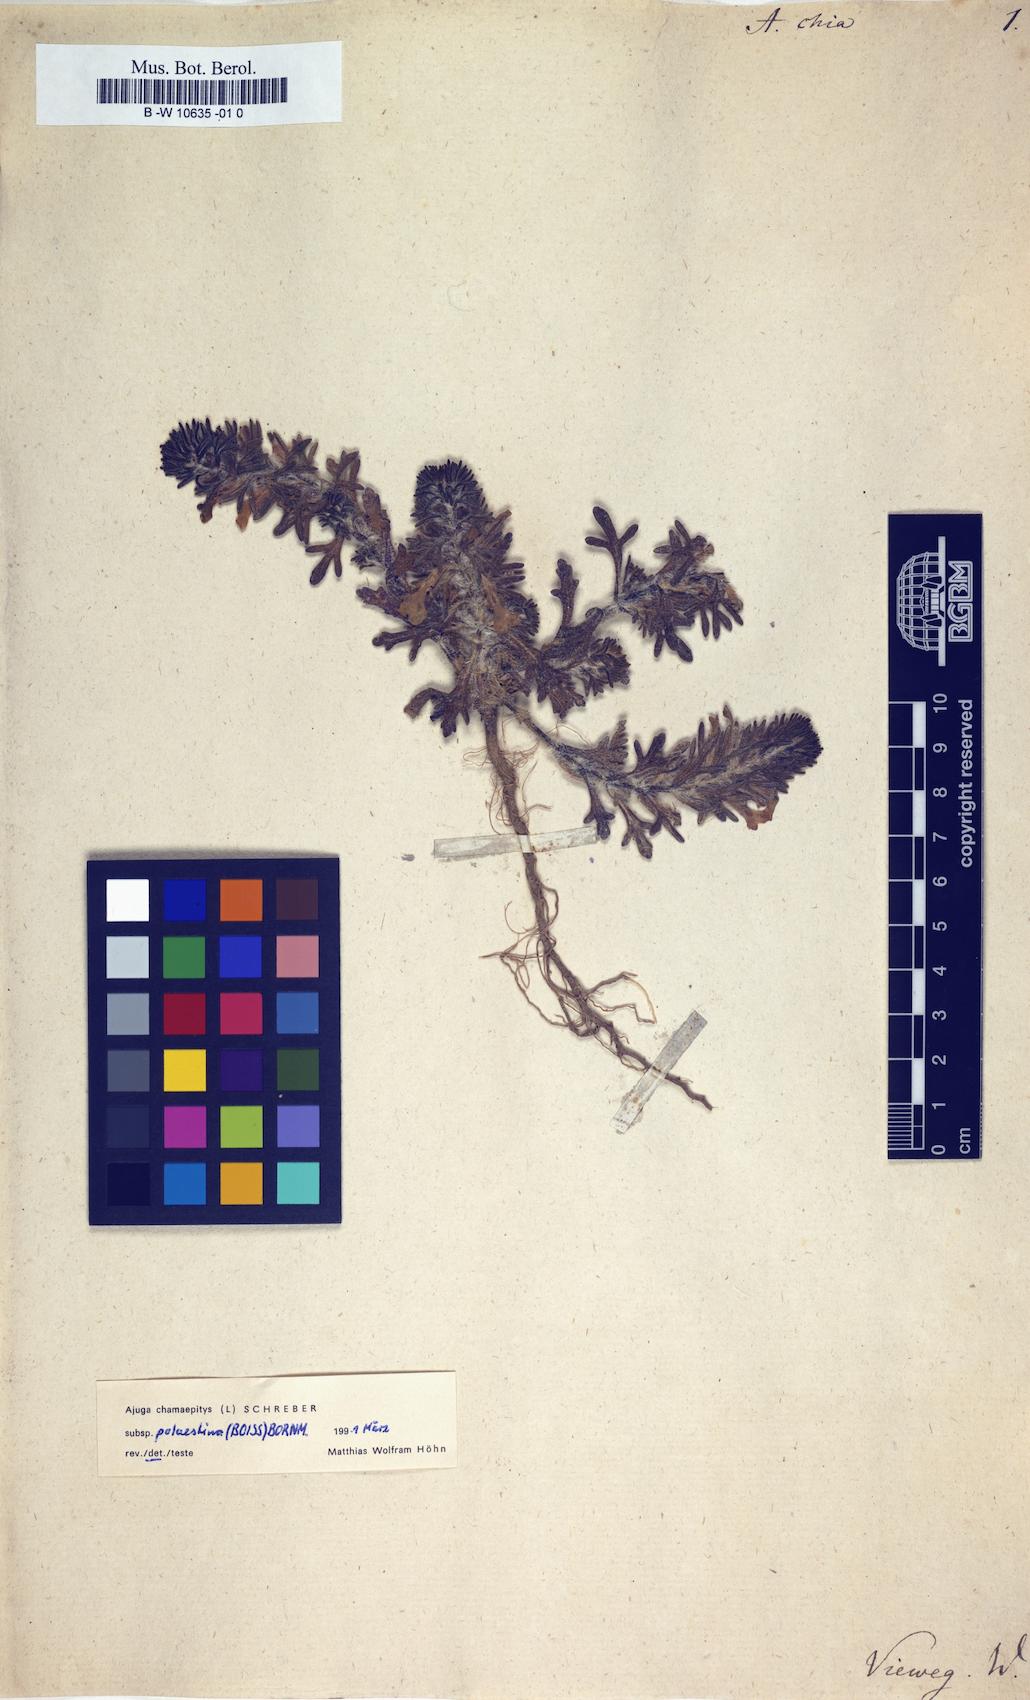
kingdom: Plantae
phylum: Tracheophyta
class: Magnoliopsida
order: Lamiales
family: Lamiaceae
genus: Ajuga
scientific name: Ajuga chamaepitys
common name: Ground-pine
